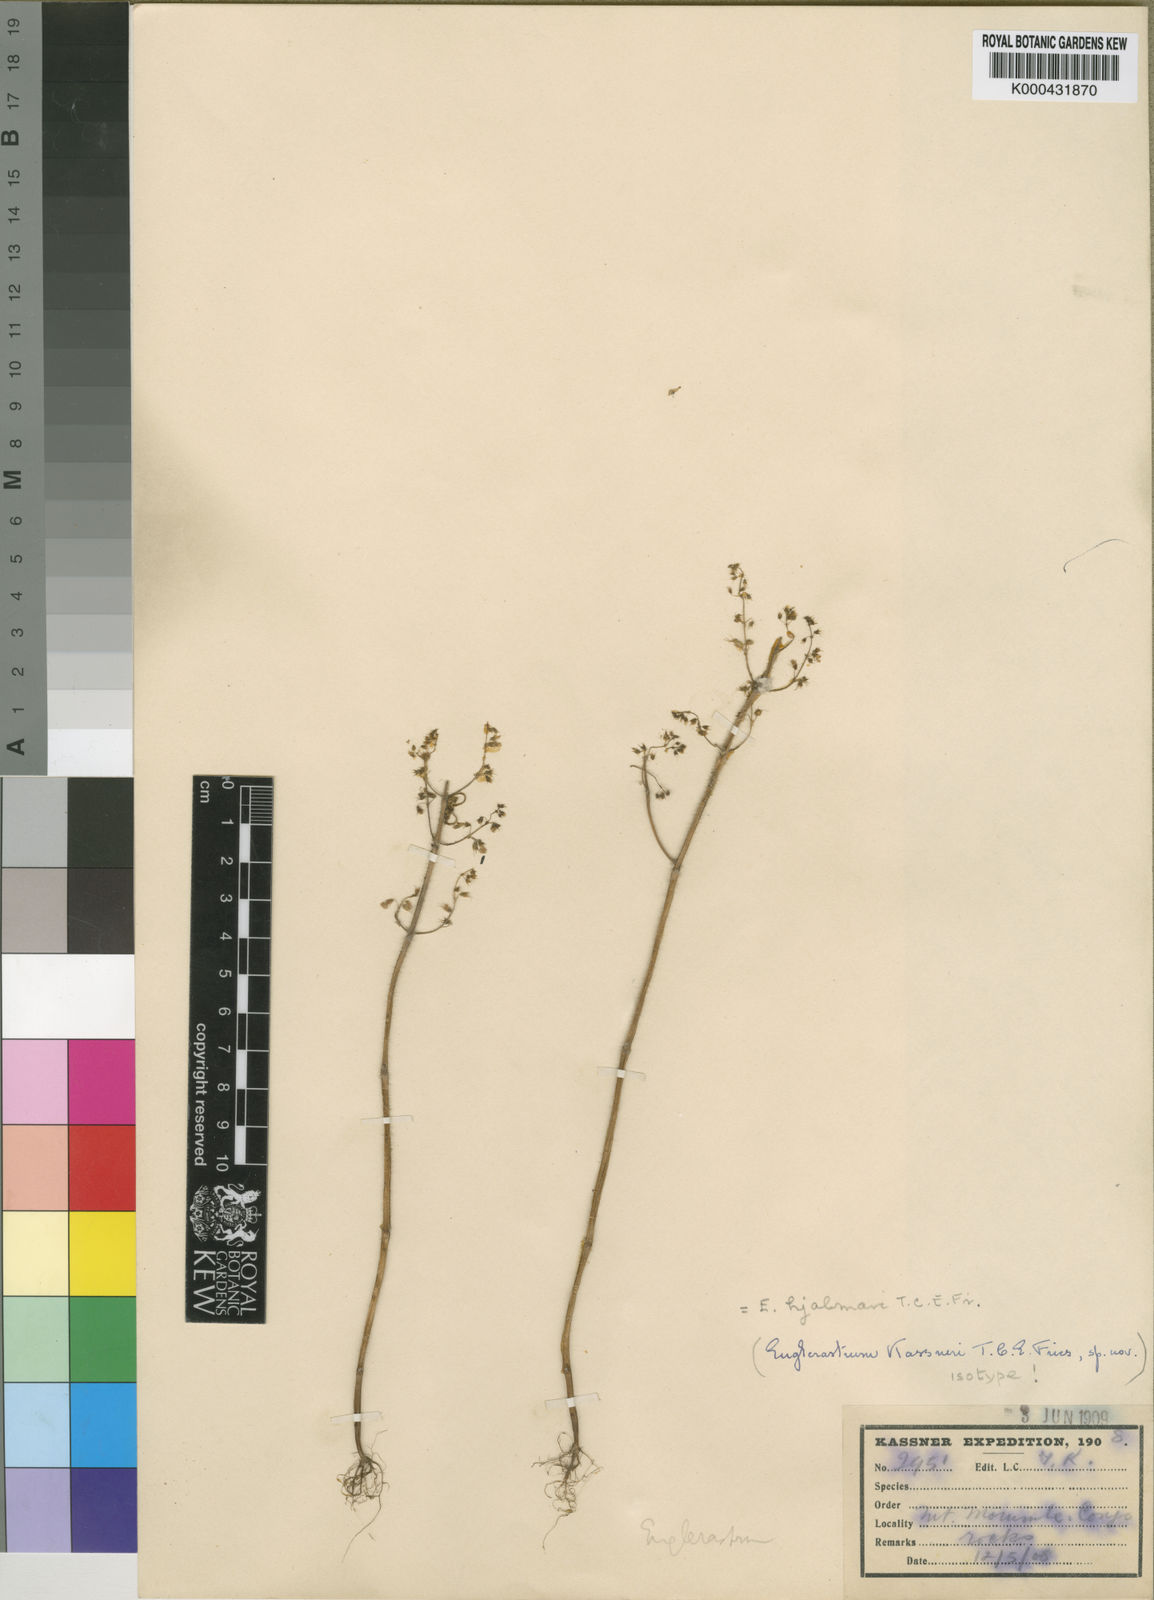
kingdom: Plantae
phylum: Tracheophyta
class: Magnoliopsida
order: Lamiales
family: Lamiaceae
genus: Coleus
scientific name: Coleus efoliatus
